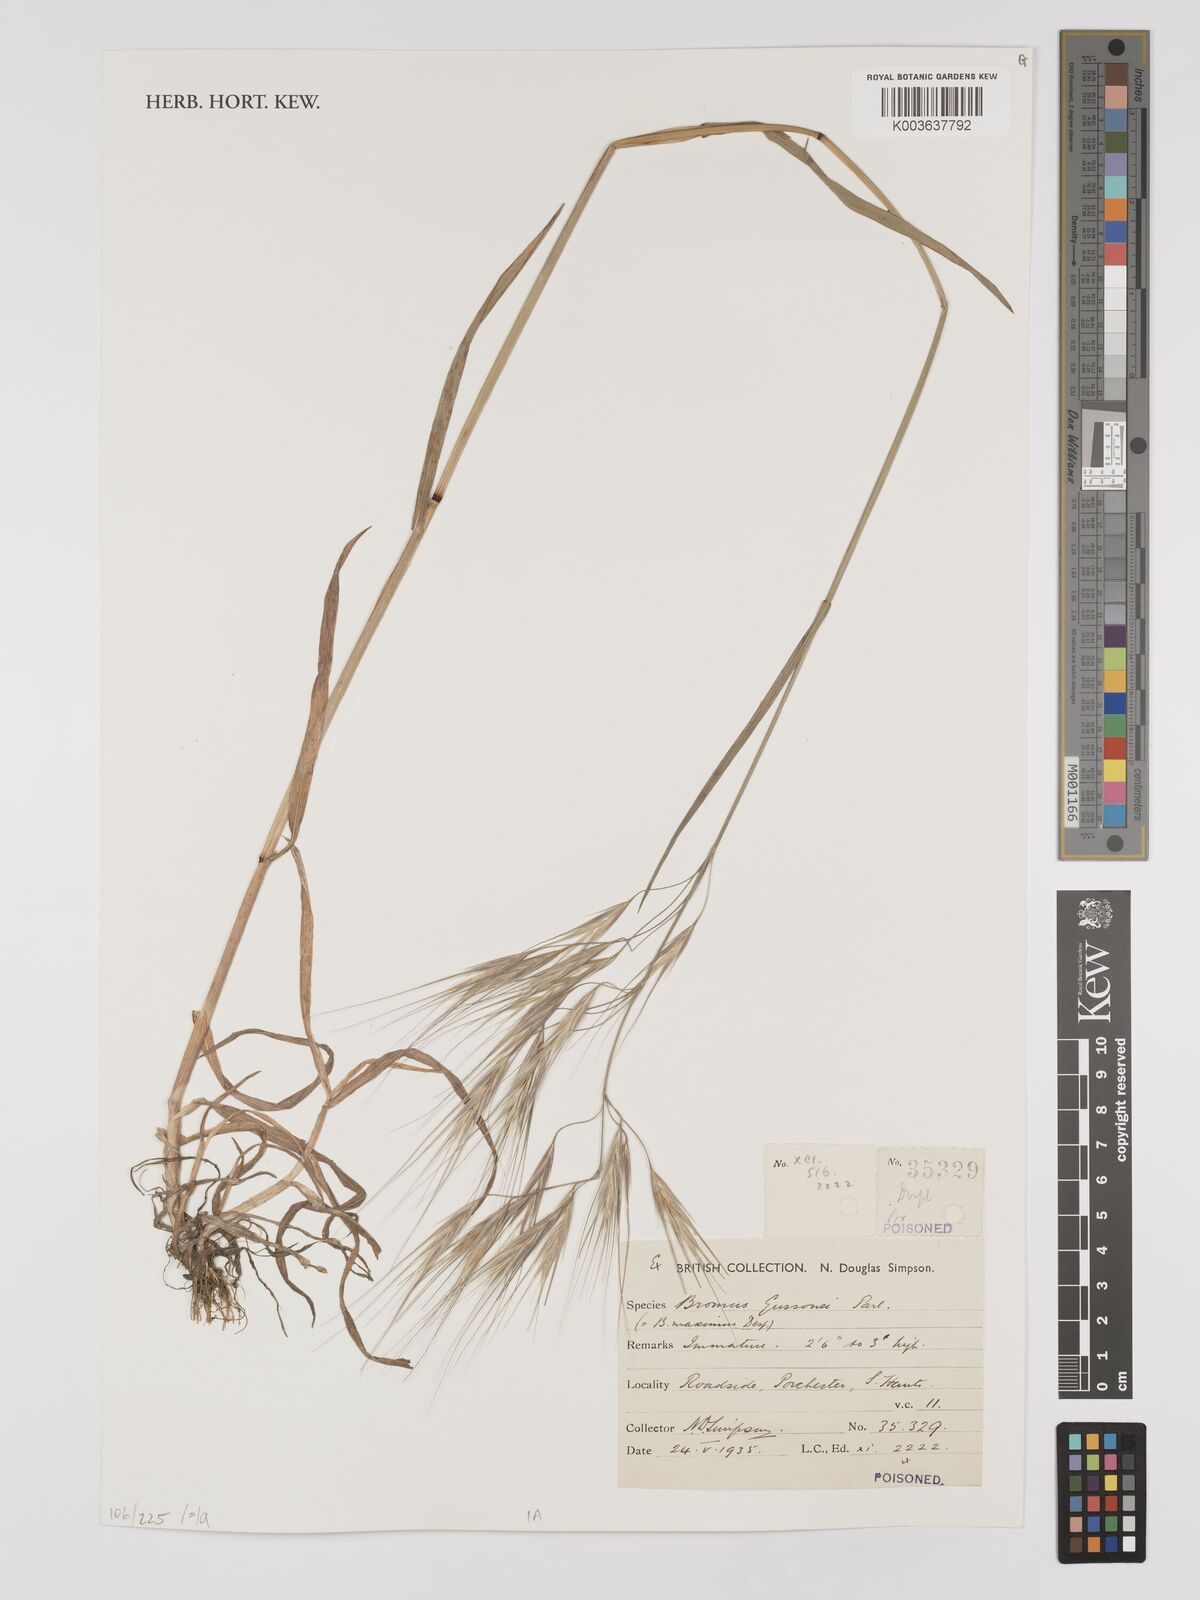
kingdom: Plantae
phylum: Tracheophyta
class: Liliopsida
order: Poales
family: Poaceae
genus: Bromus
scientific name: Bromus
